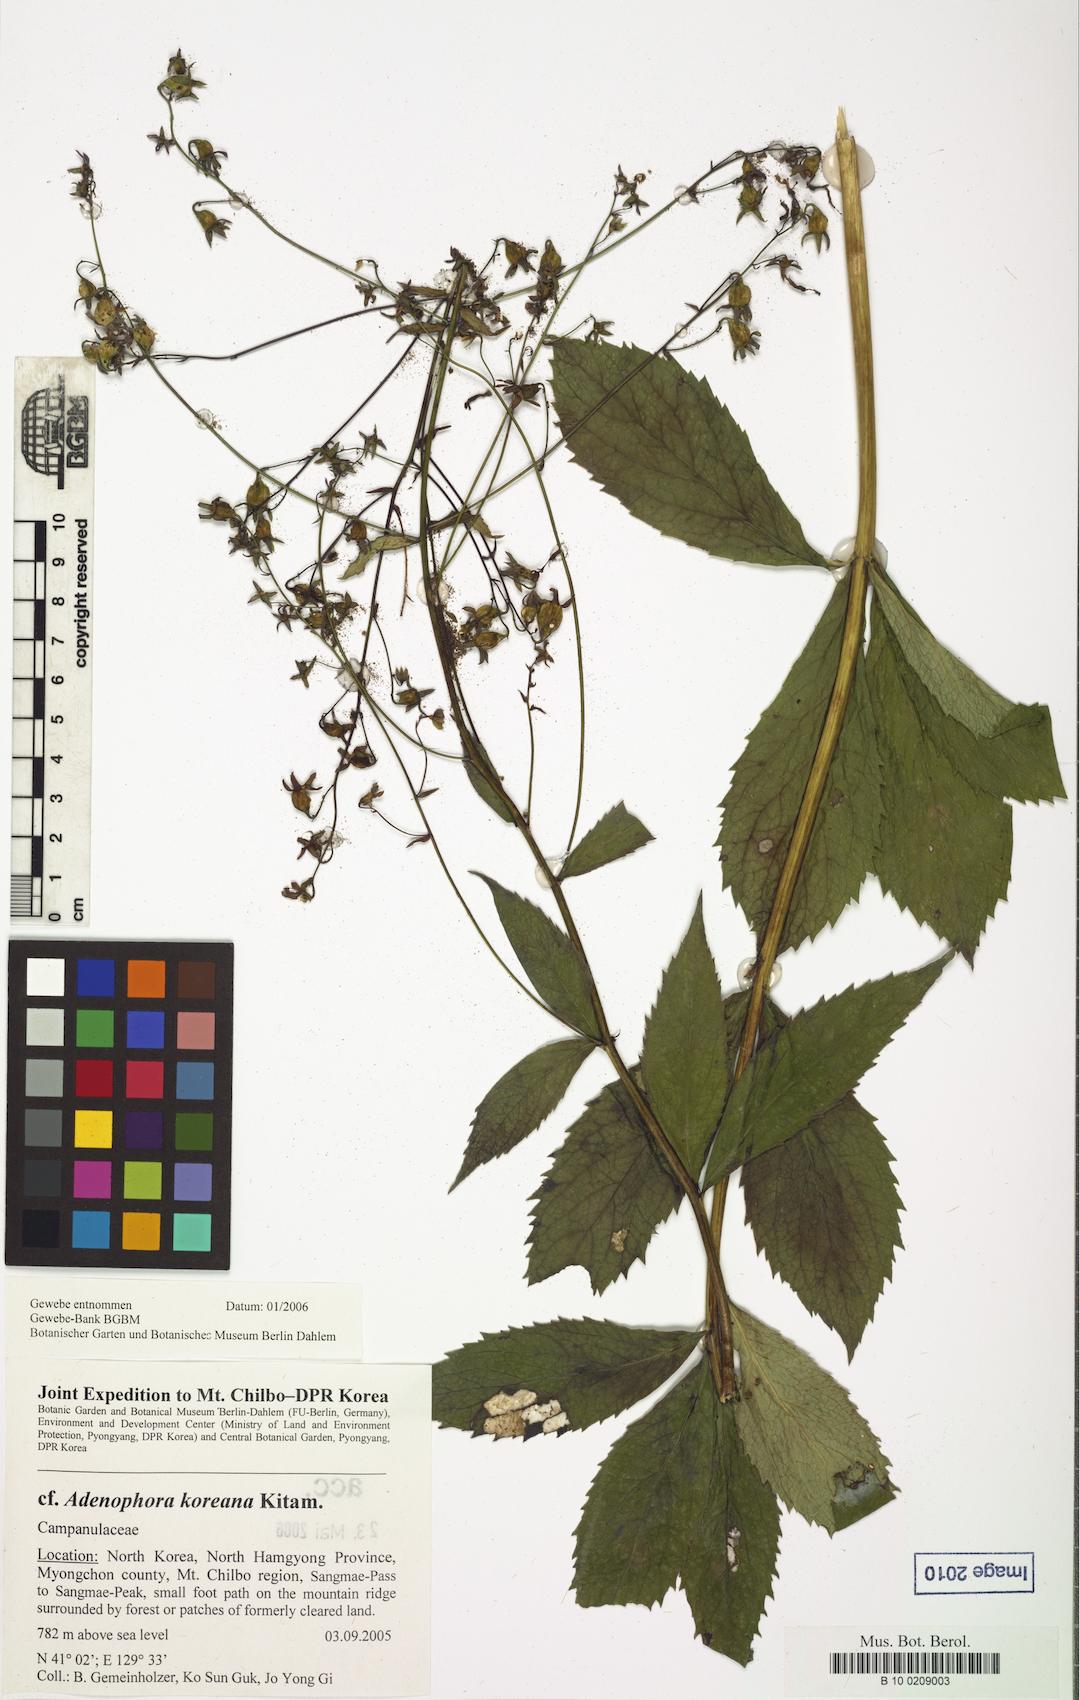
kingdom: Plantae
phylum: Tracheophyta
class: Magnoliopsida
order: Asterales
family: Campanulaceae
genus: Adenophora
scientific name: Adenophora divaricata
